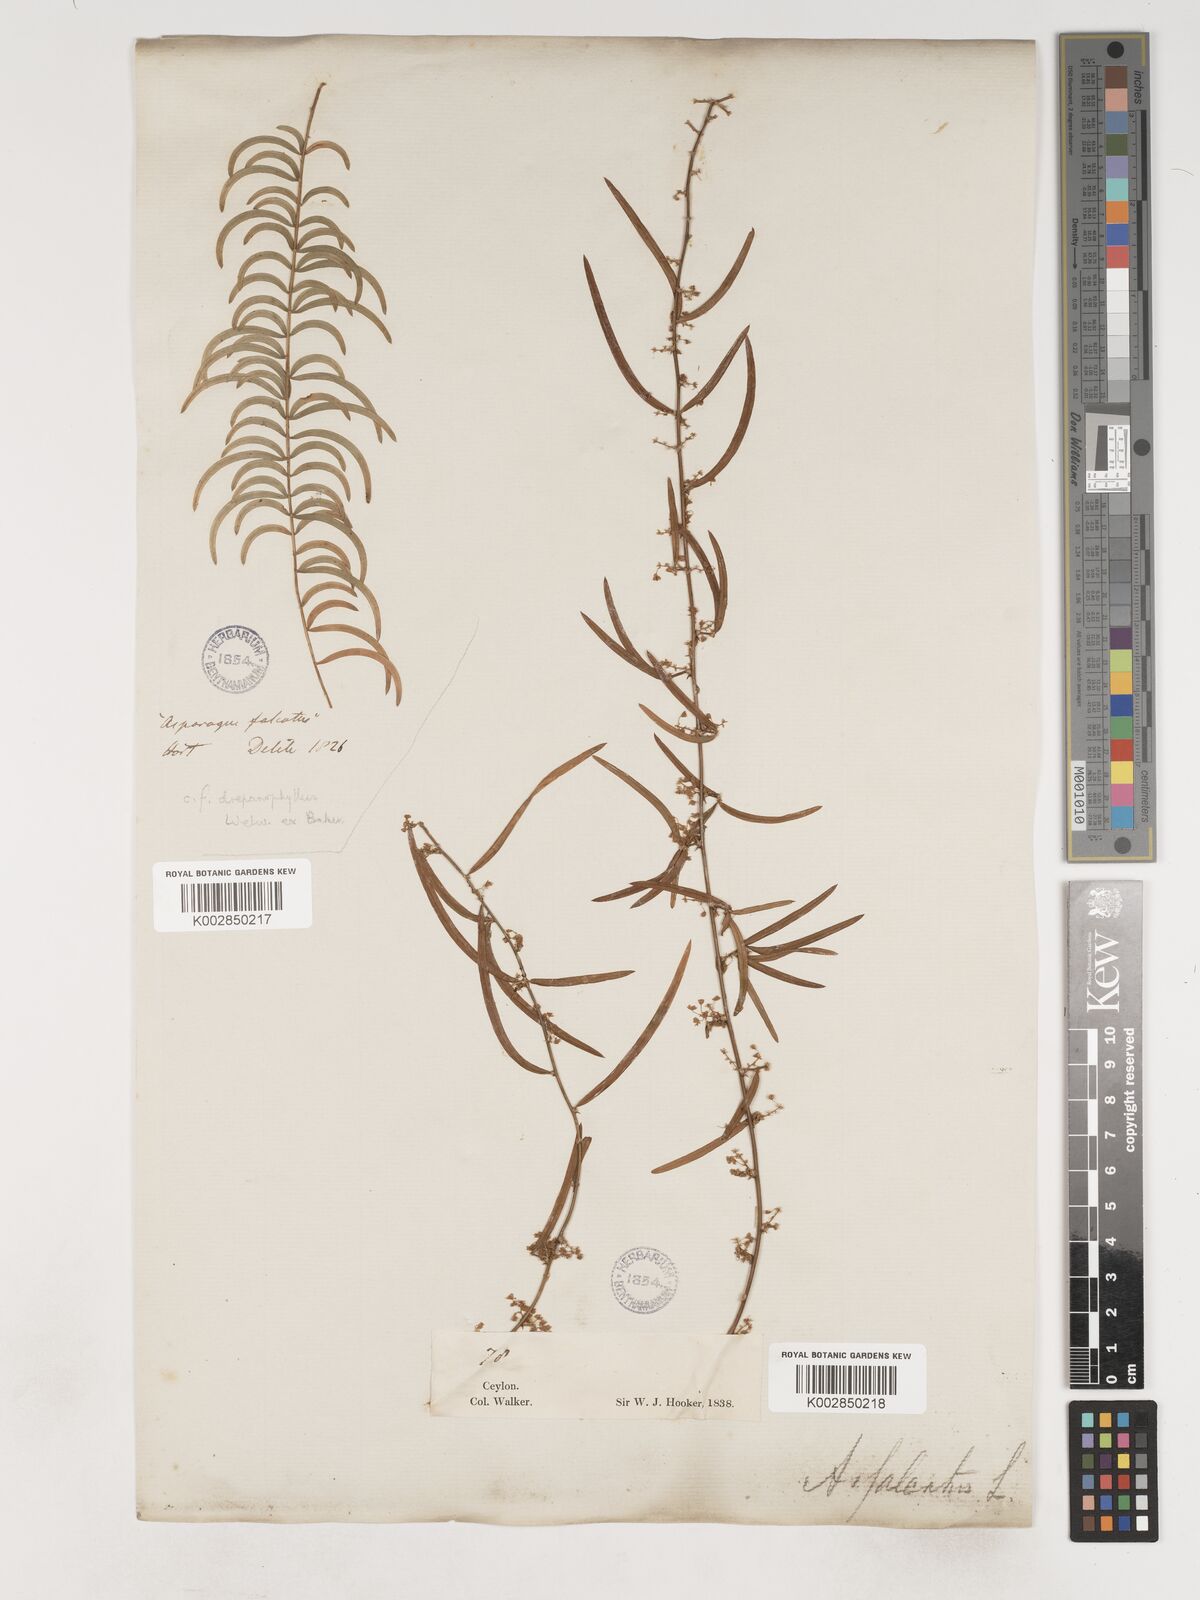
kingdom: Plantae
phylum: Tracheophyta
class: Liliopsida
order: Asparagales
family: Asparagaceae
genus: Asparagus
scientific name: Asparagus falcatus
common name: Asparagus
